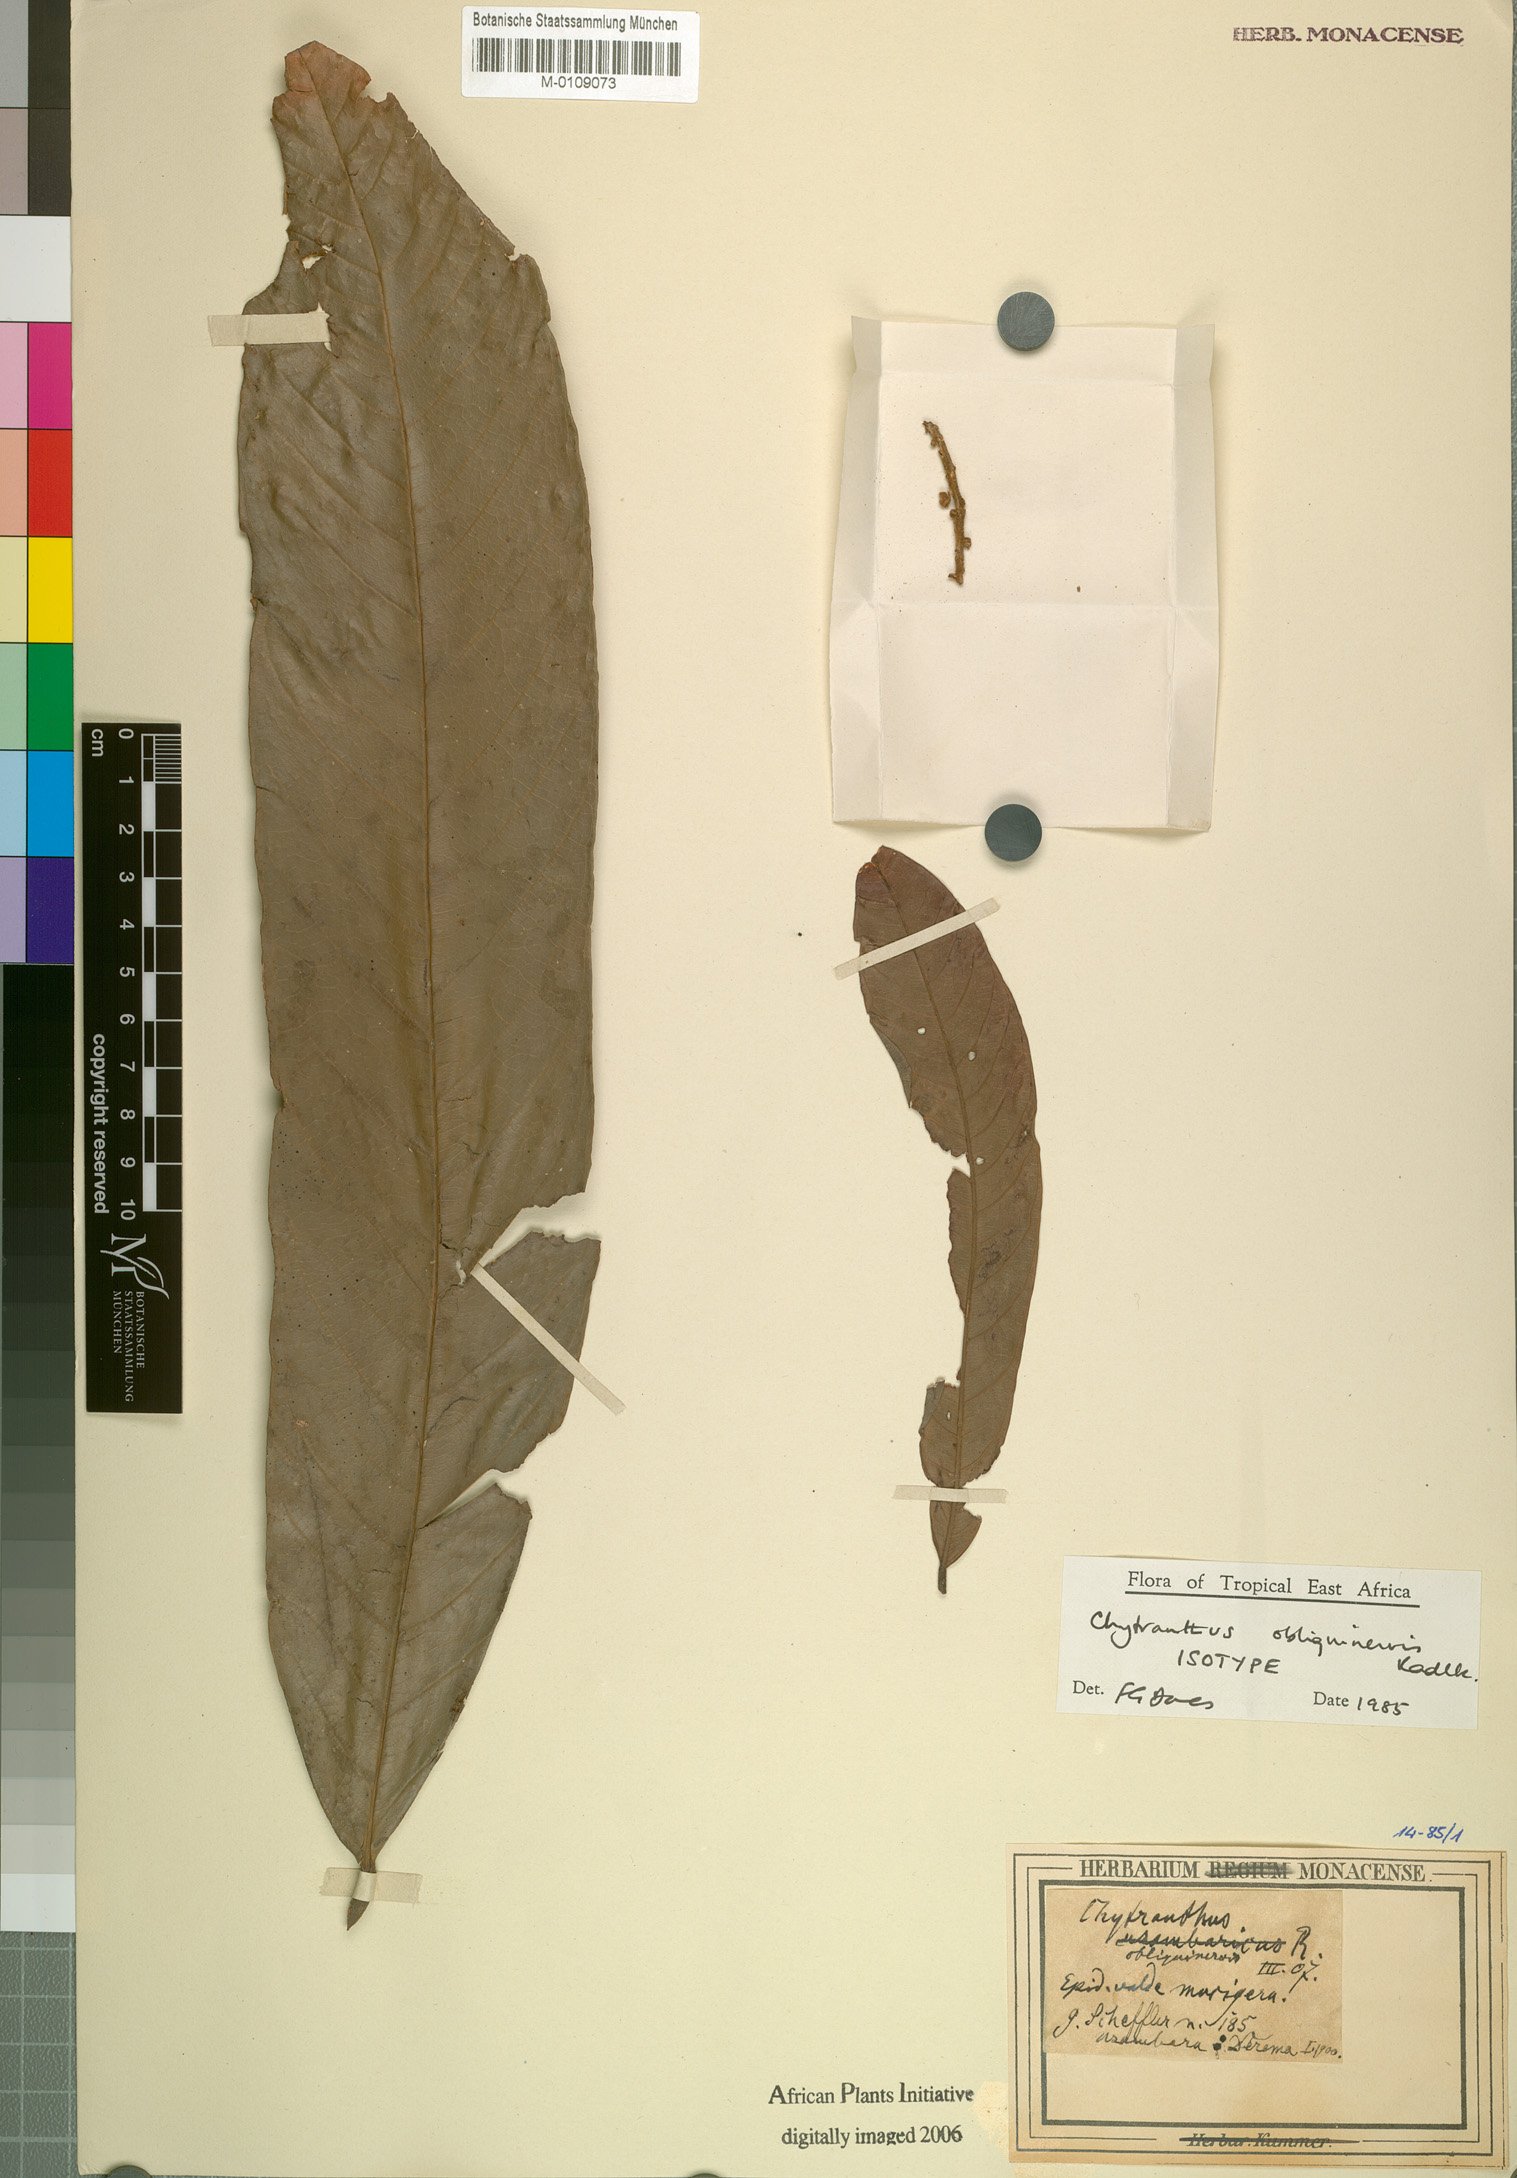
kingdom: Plantae
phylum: Tracheophyta
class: Magnoliopsida
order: Sapindales
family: Sapindaceae
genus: Chytranthus
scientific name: Chytranthus obliquinervis
